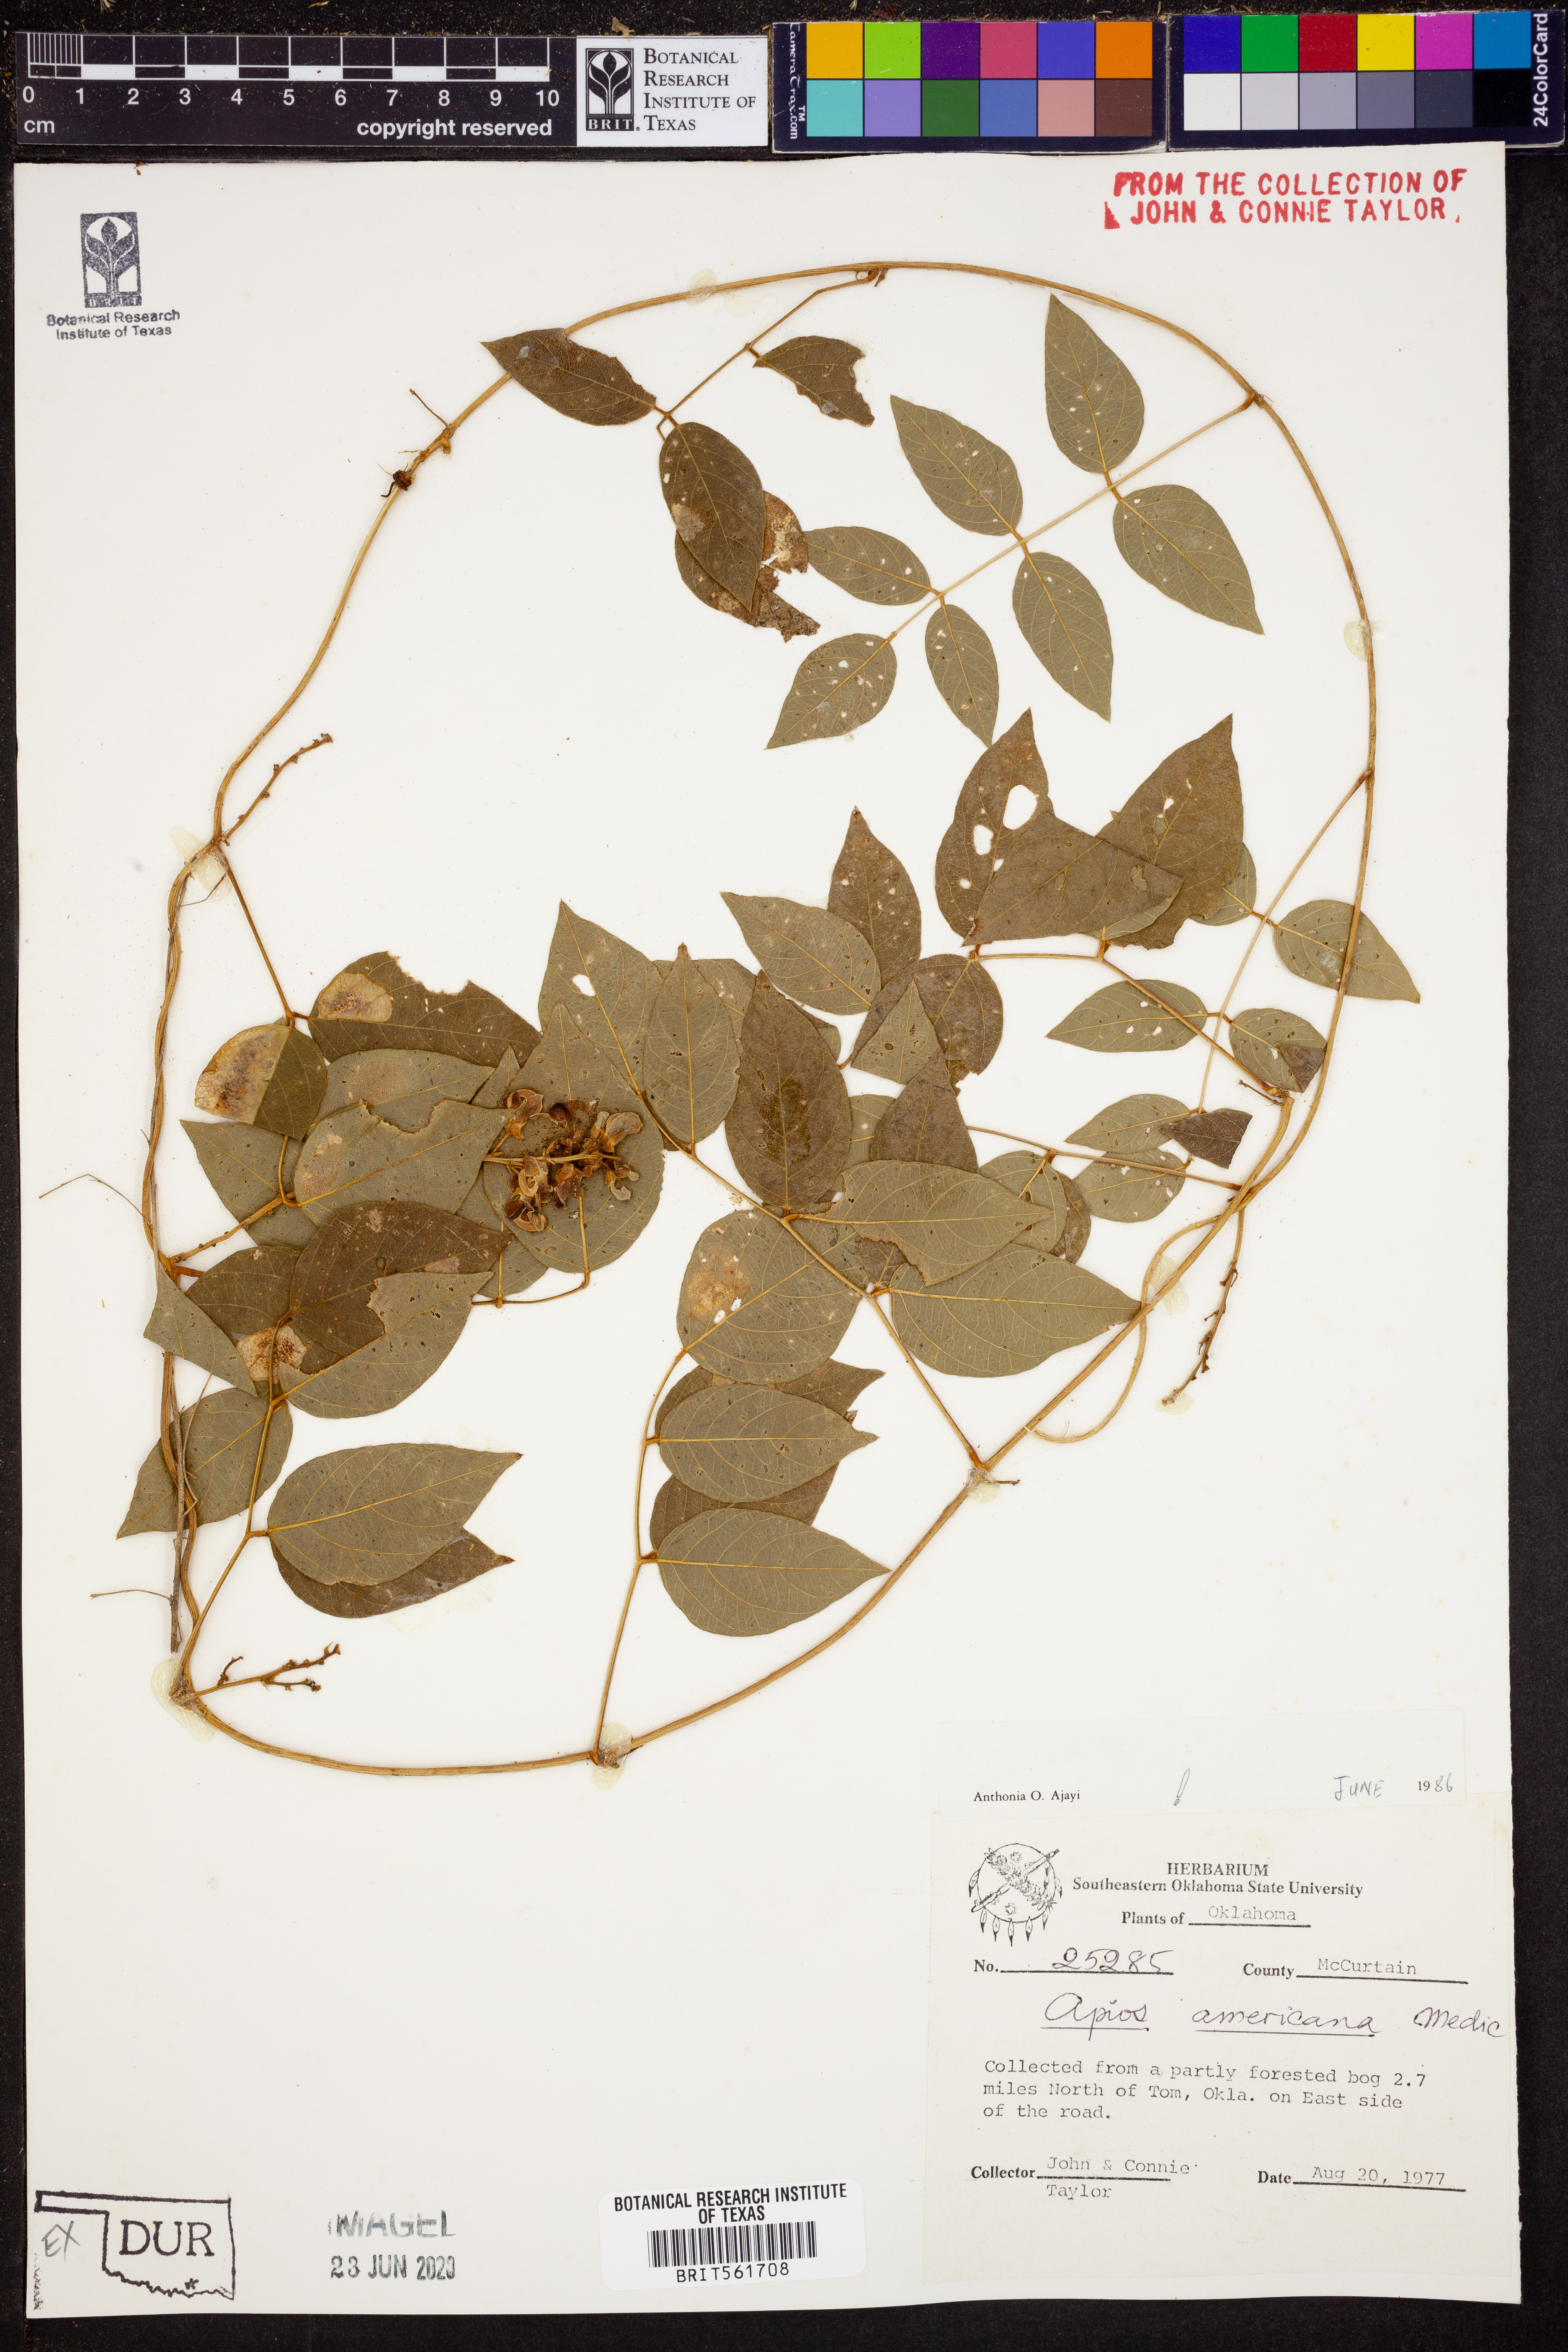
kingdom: Plantae
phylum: Tracheophyta
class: Magnoliopsida
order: Fabales
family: Fabaceae
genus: Apios
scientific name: Apios americana
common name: American potato-bean
